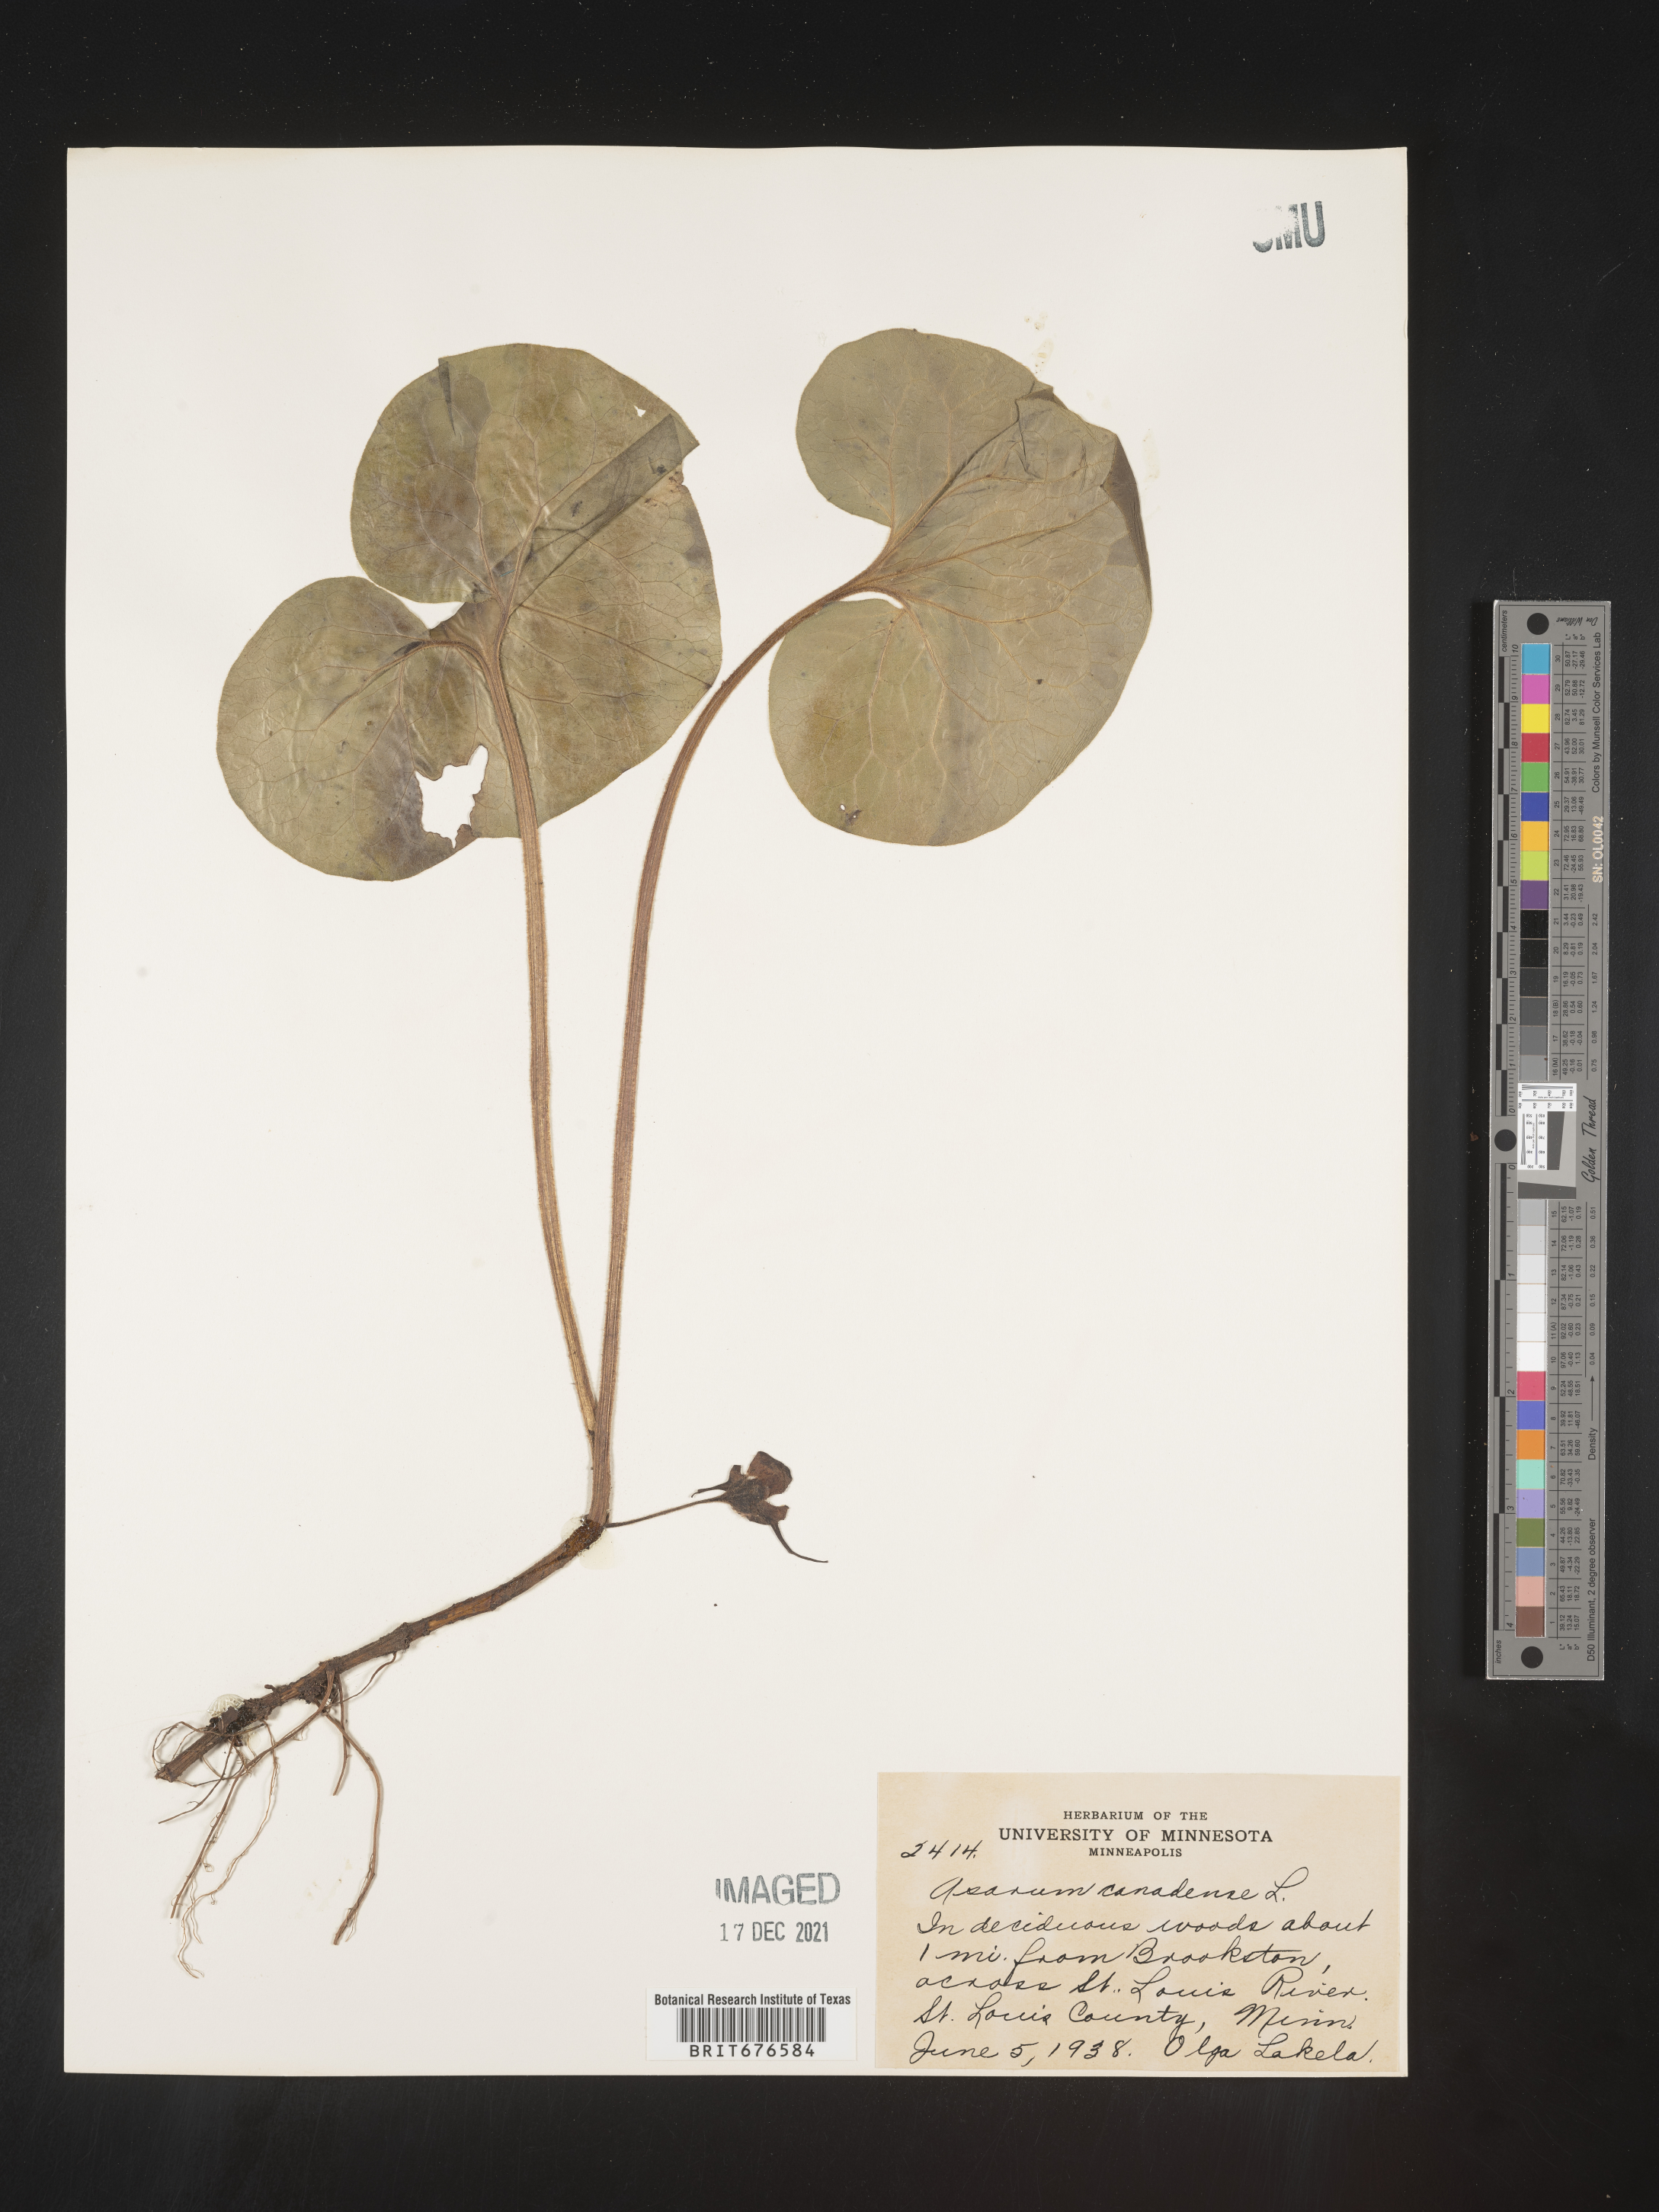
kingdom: Plantae
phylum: Tracheophyta
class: Magnoliopsida
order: Piperales
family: Aristolochiaceae
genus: Asarum
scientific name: Asarum canadense
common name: Wild ginger
